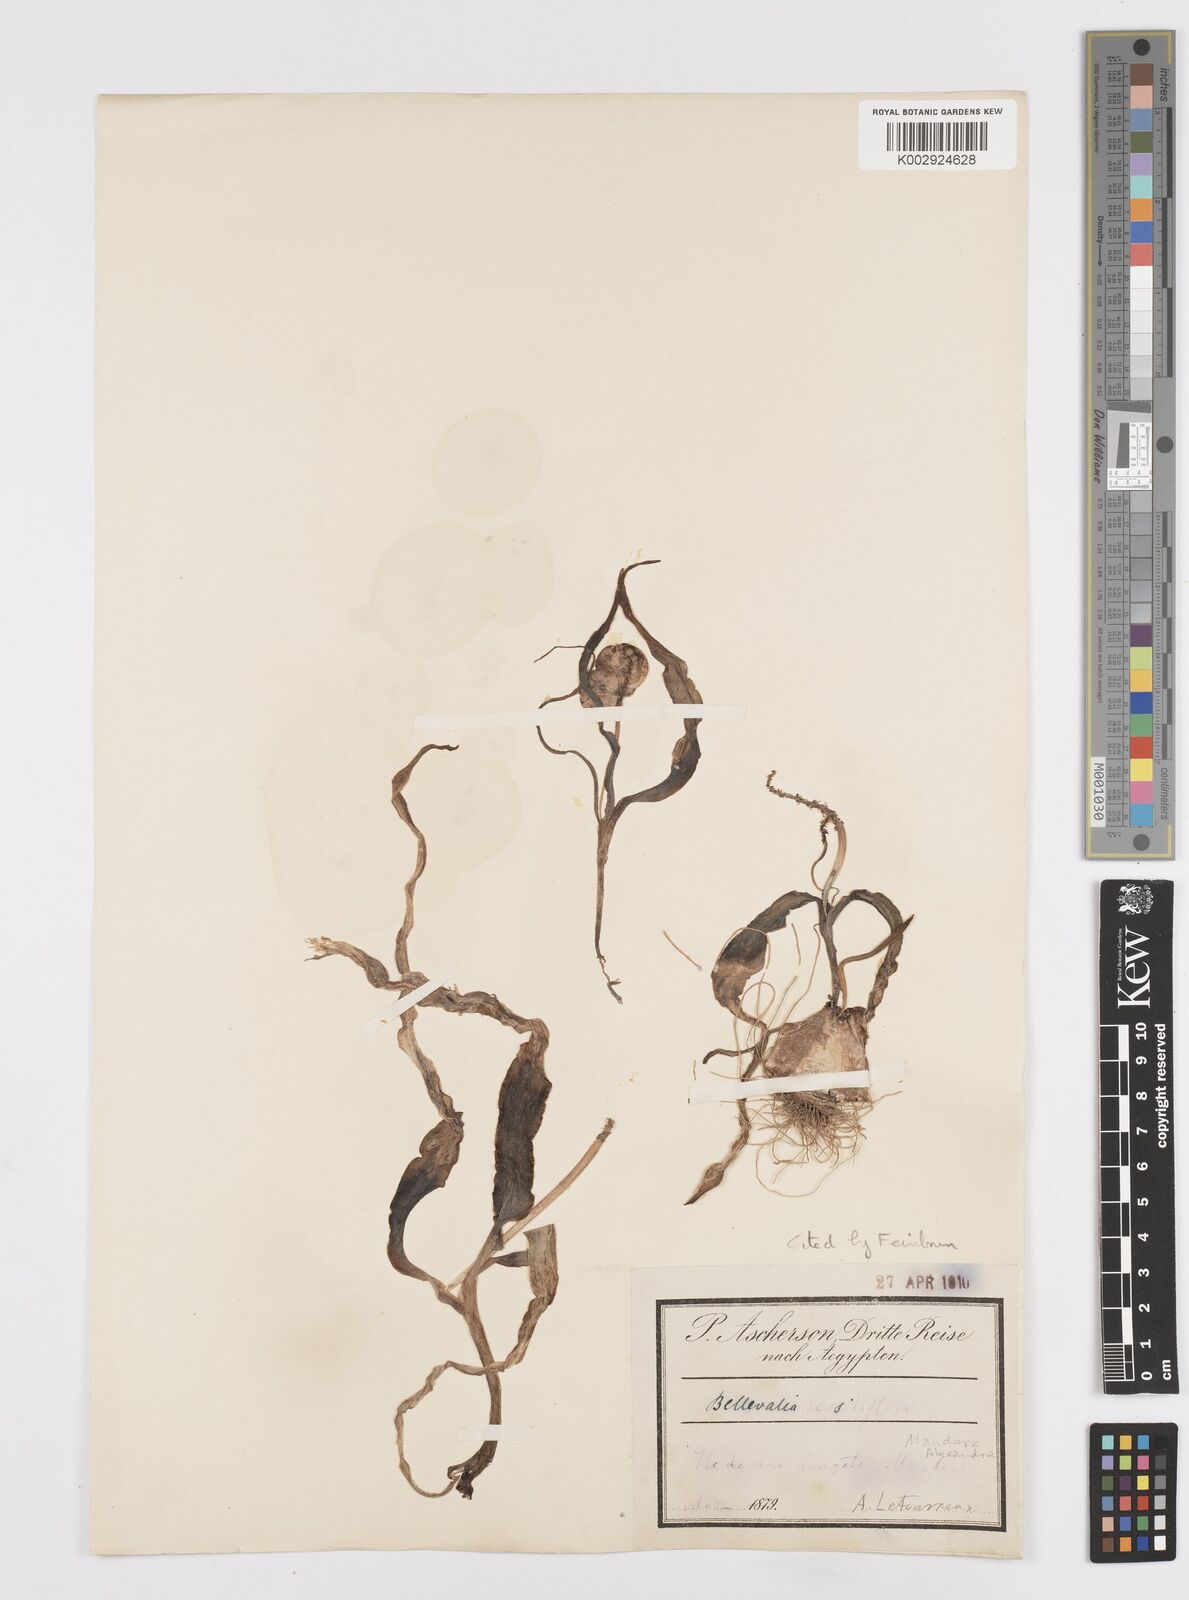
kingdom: Plantae
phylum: Tracheophyta
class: Liliopsida
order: Asparagales
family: Asparagaceae
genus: Bellevalia
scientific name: Bellevalia sessiliflora
